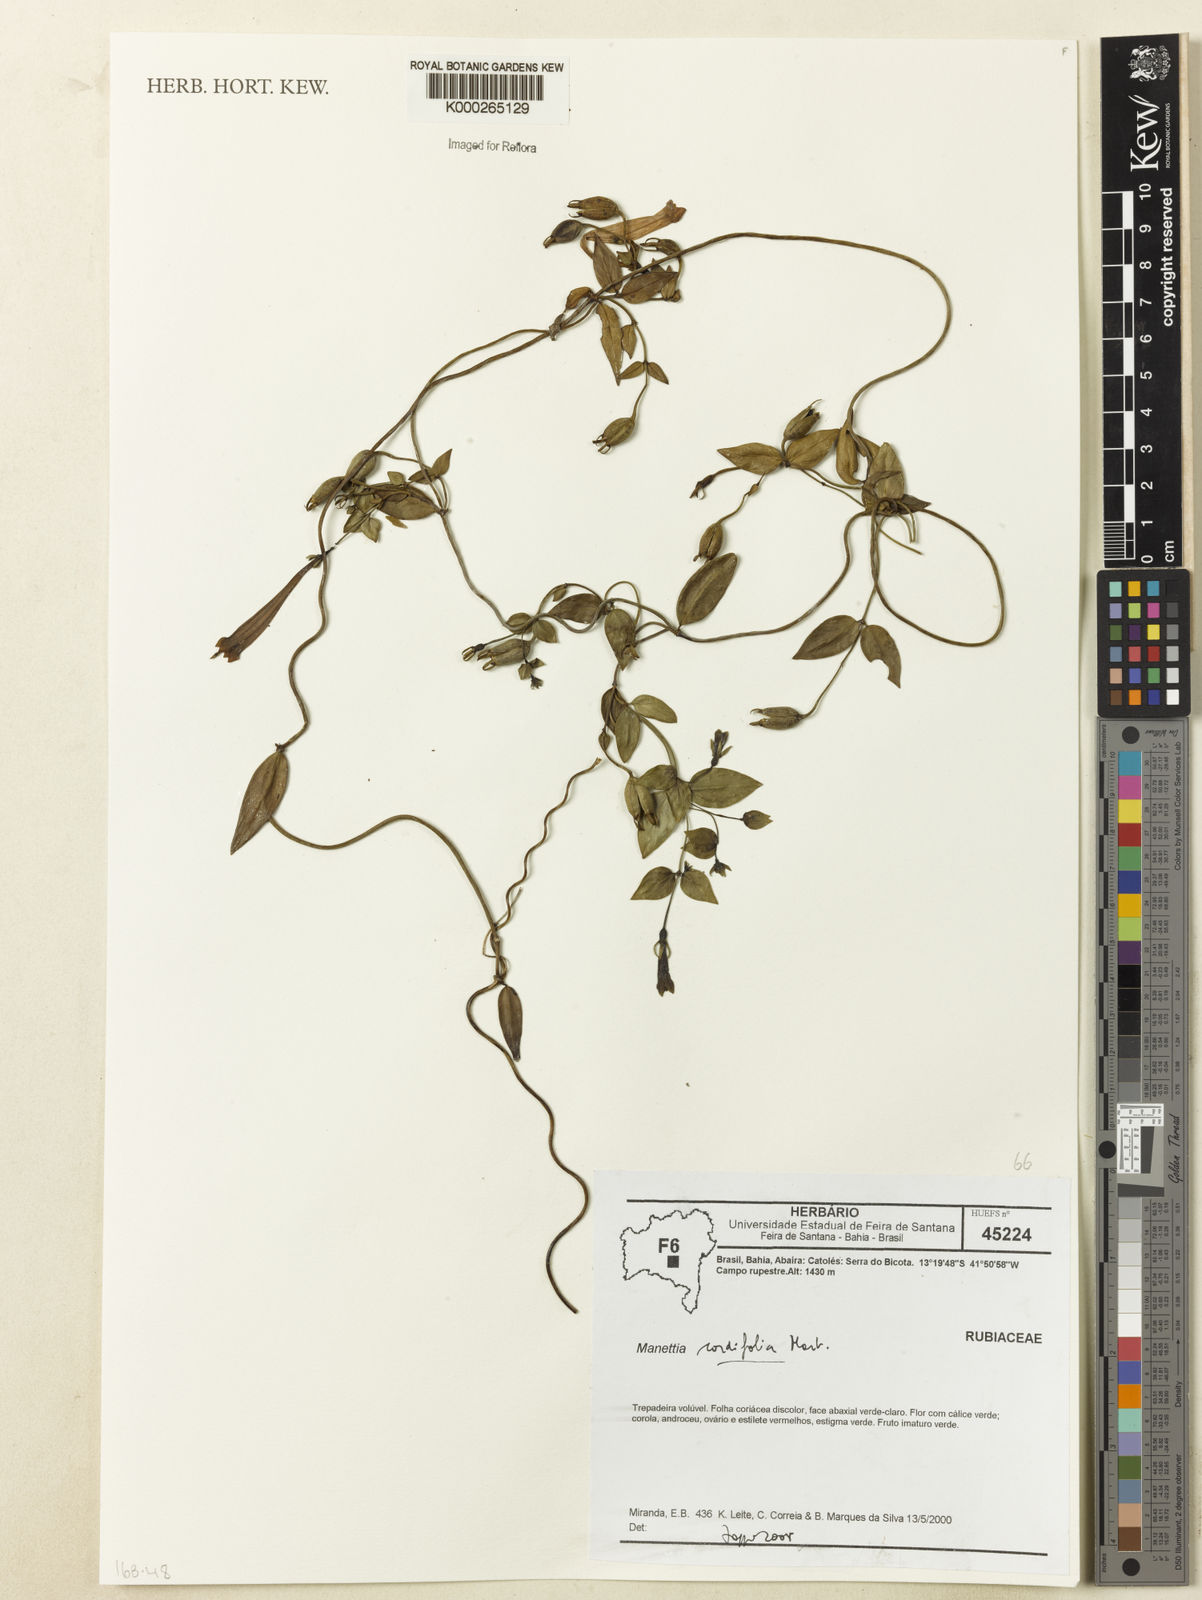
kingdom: Plantae
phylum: Tracheophyta
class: Magnoliopsida
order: Gentianales
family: Rubiaceae
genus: Manettia
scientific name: Manettia cordifolia
